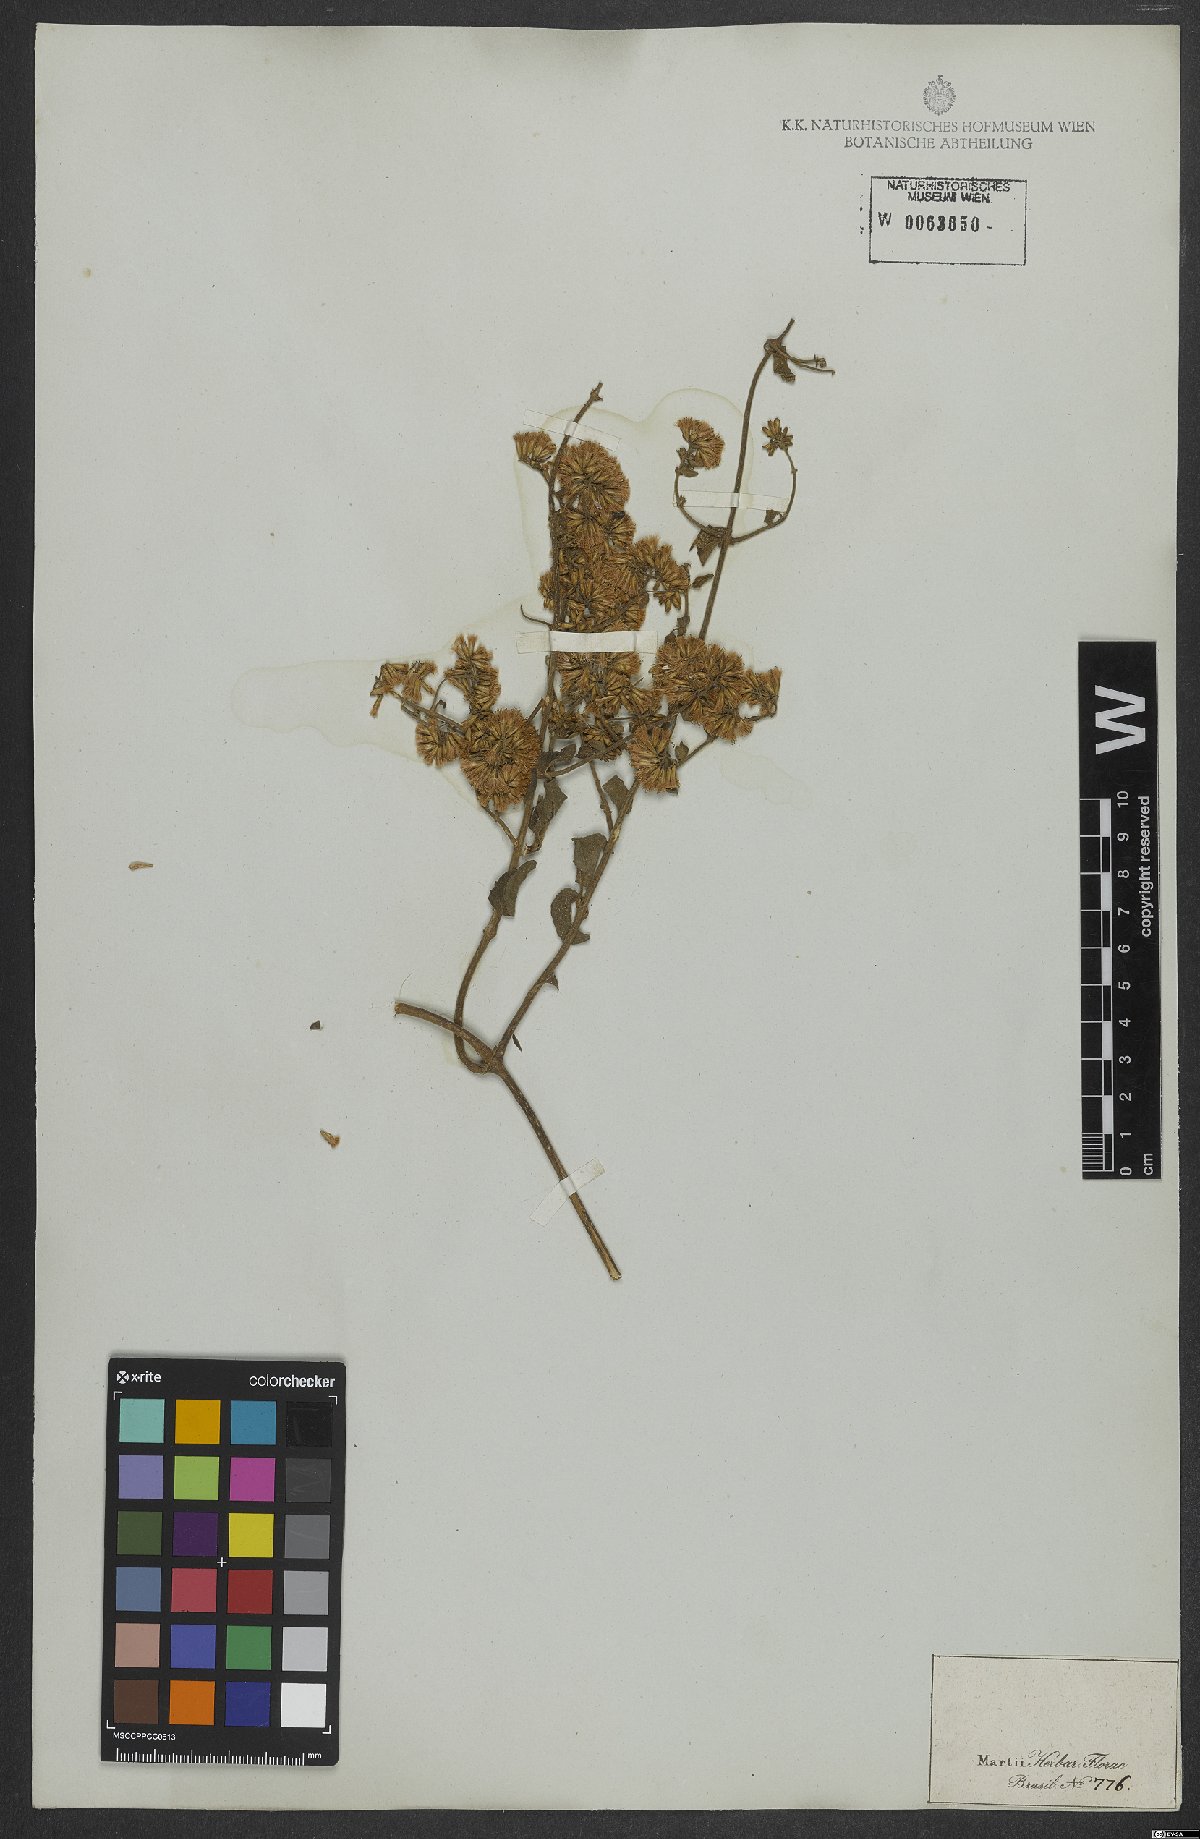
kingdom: Plantae
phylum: Tracheophyta
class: Magnoliopsida
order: Asterales
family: Asteraceae
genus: Mikania
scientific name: Mikania cordifolia
